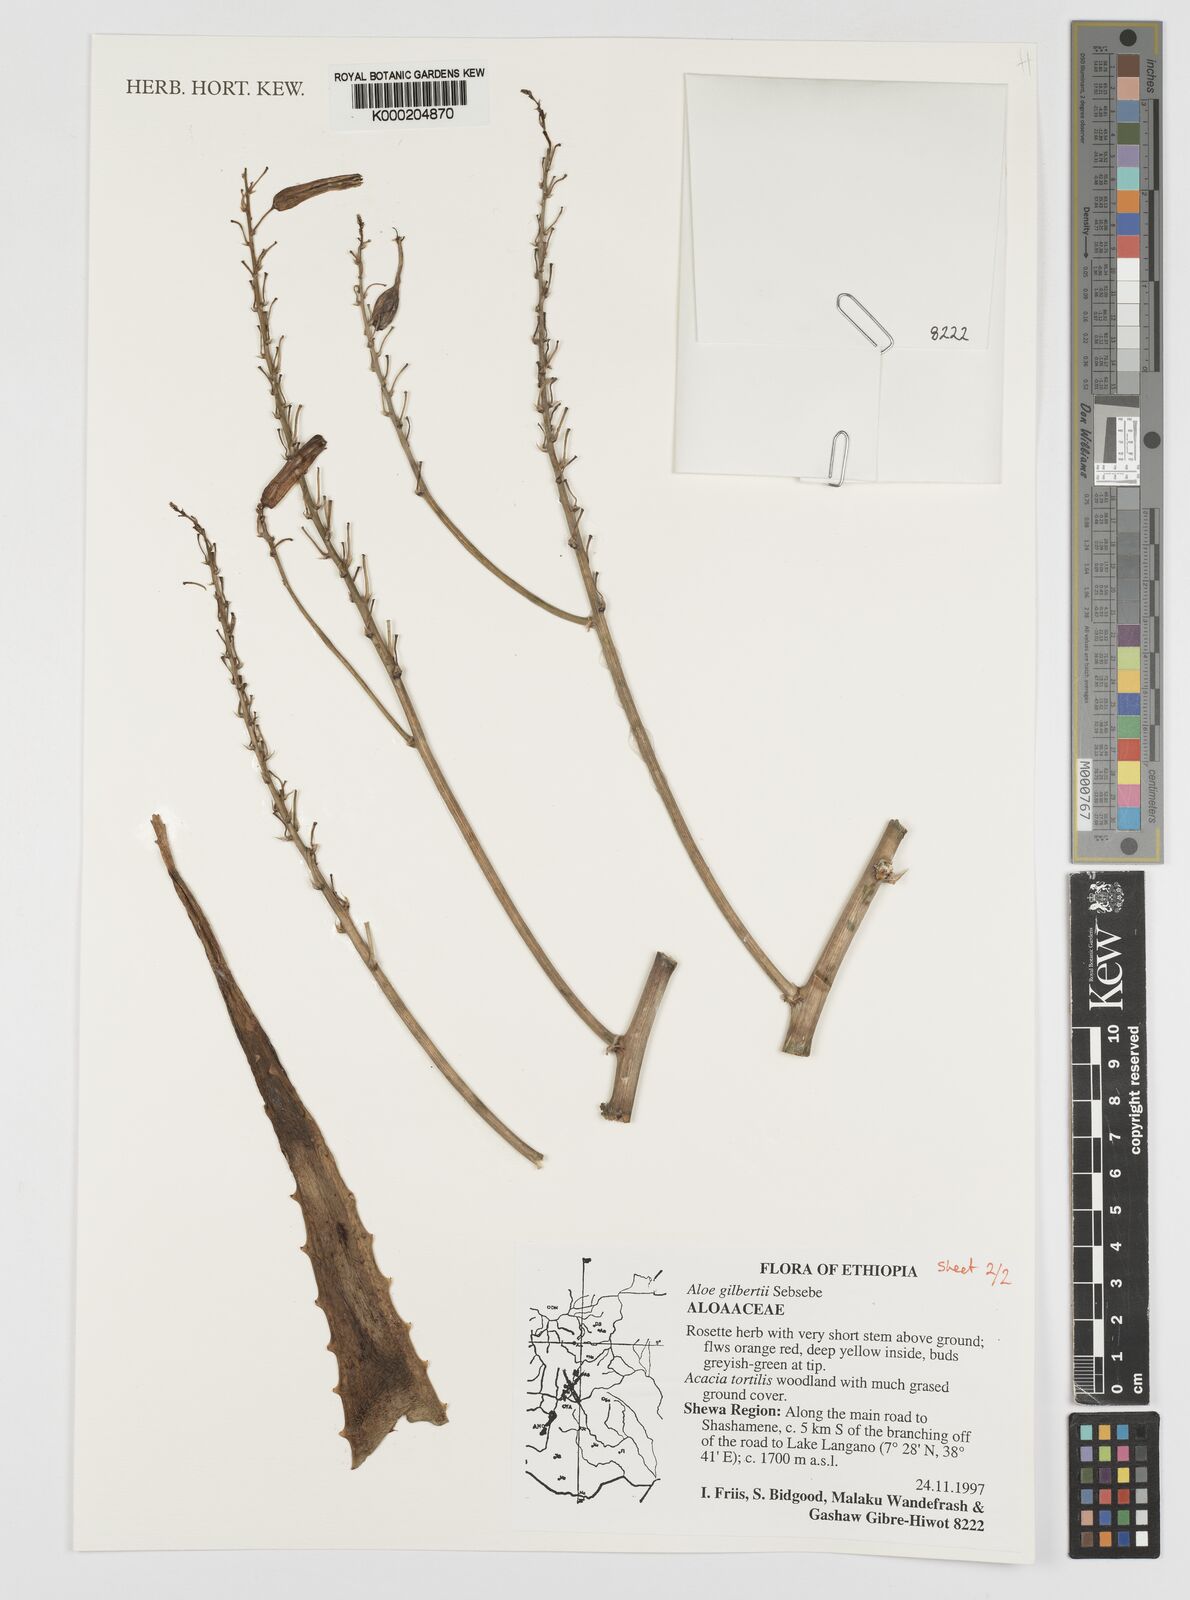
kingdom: Plantae
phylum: Tracheophyta
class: Liliopsida
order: Asparagales
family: Asphodelaceae
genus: Aloe
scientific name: Aloe gilbertii
